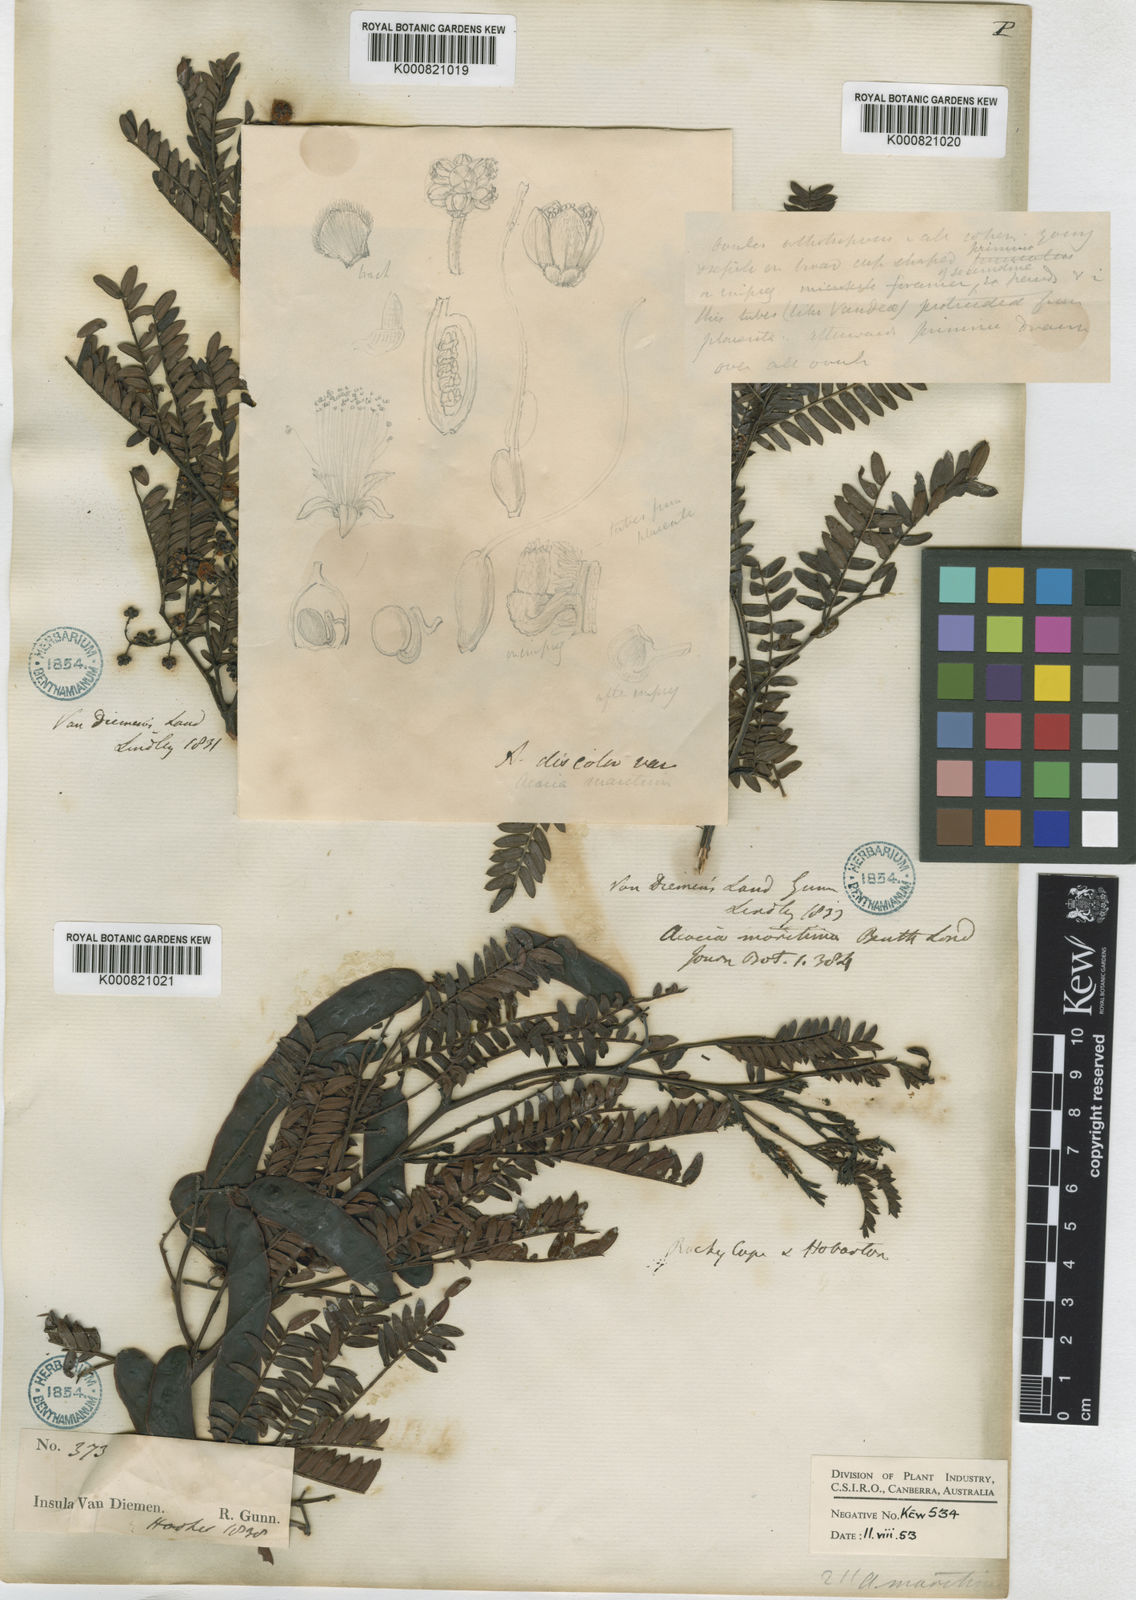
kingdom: Plantae
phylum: Tracheophyta
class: Magnoliopsida
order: Fabales
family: Fabaceae
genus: Acacia
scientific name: Acacia terminalis
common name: Cedar wattle
